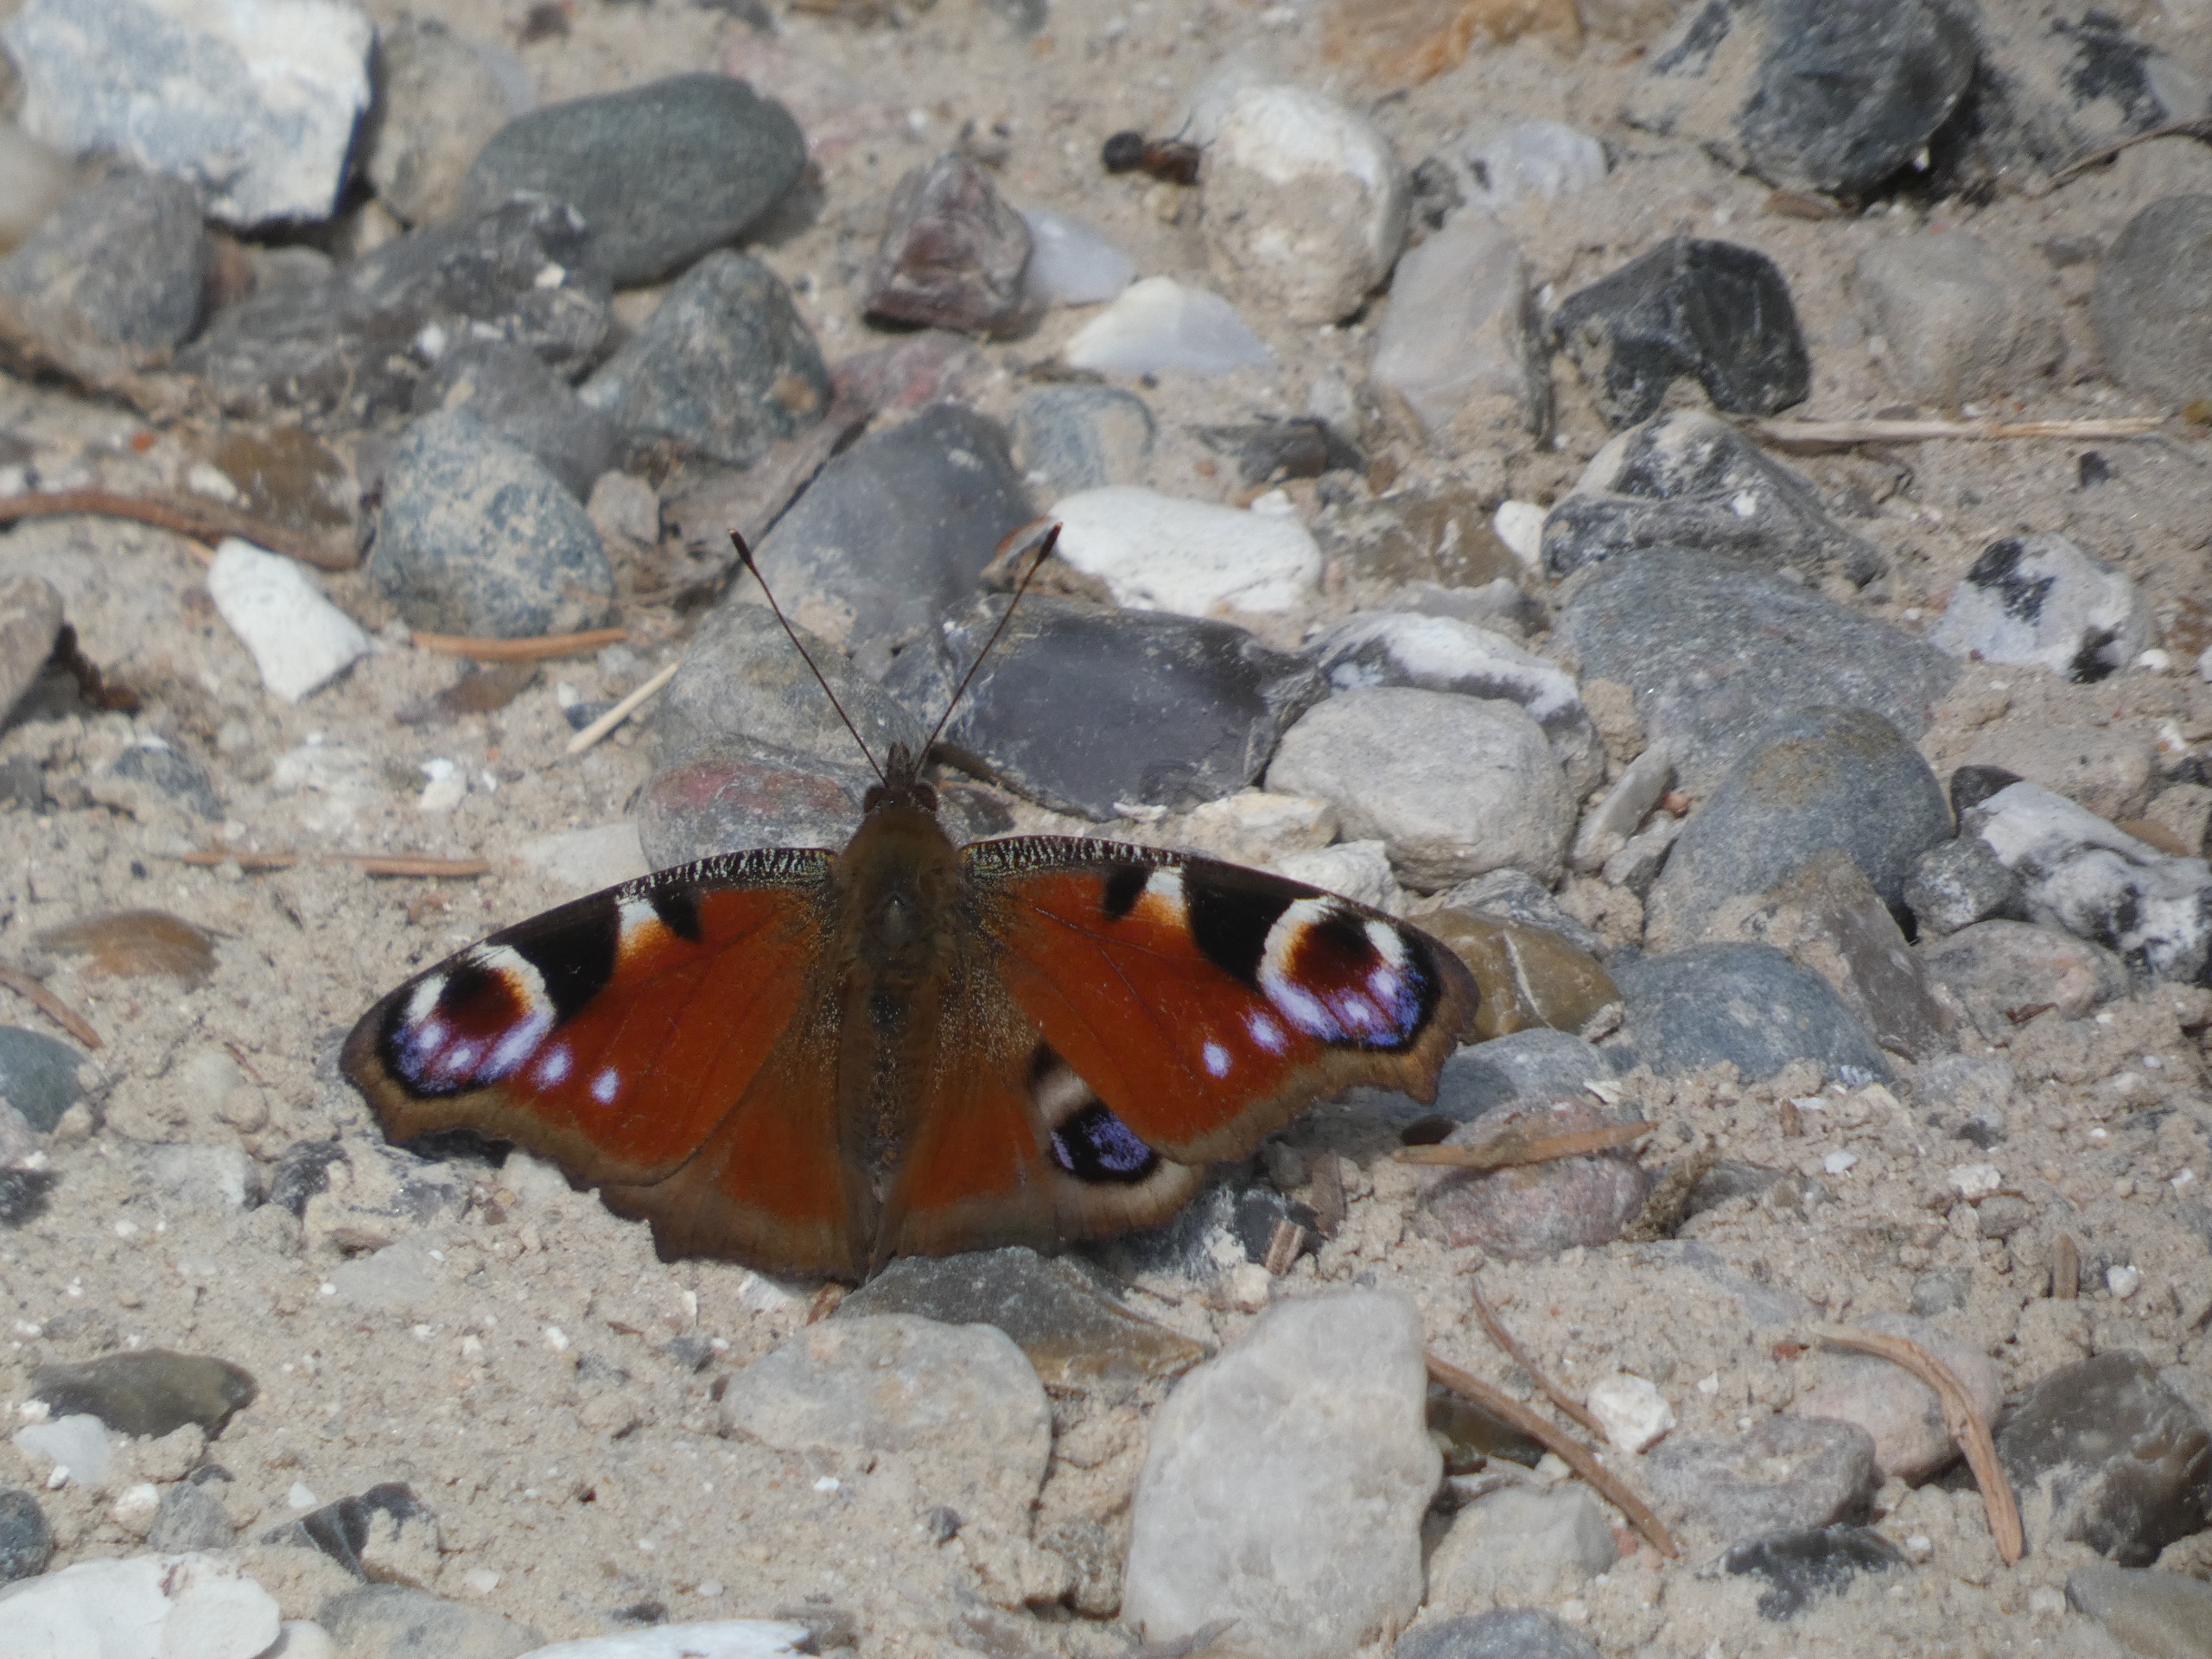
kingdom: Animalia
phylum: Arthropoda
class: Insecta
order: Lepidoptera
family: Nymphalidae
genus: Aglais
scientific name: Aglais io
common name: Dagpåfugleøje
